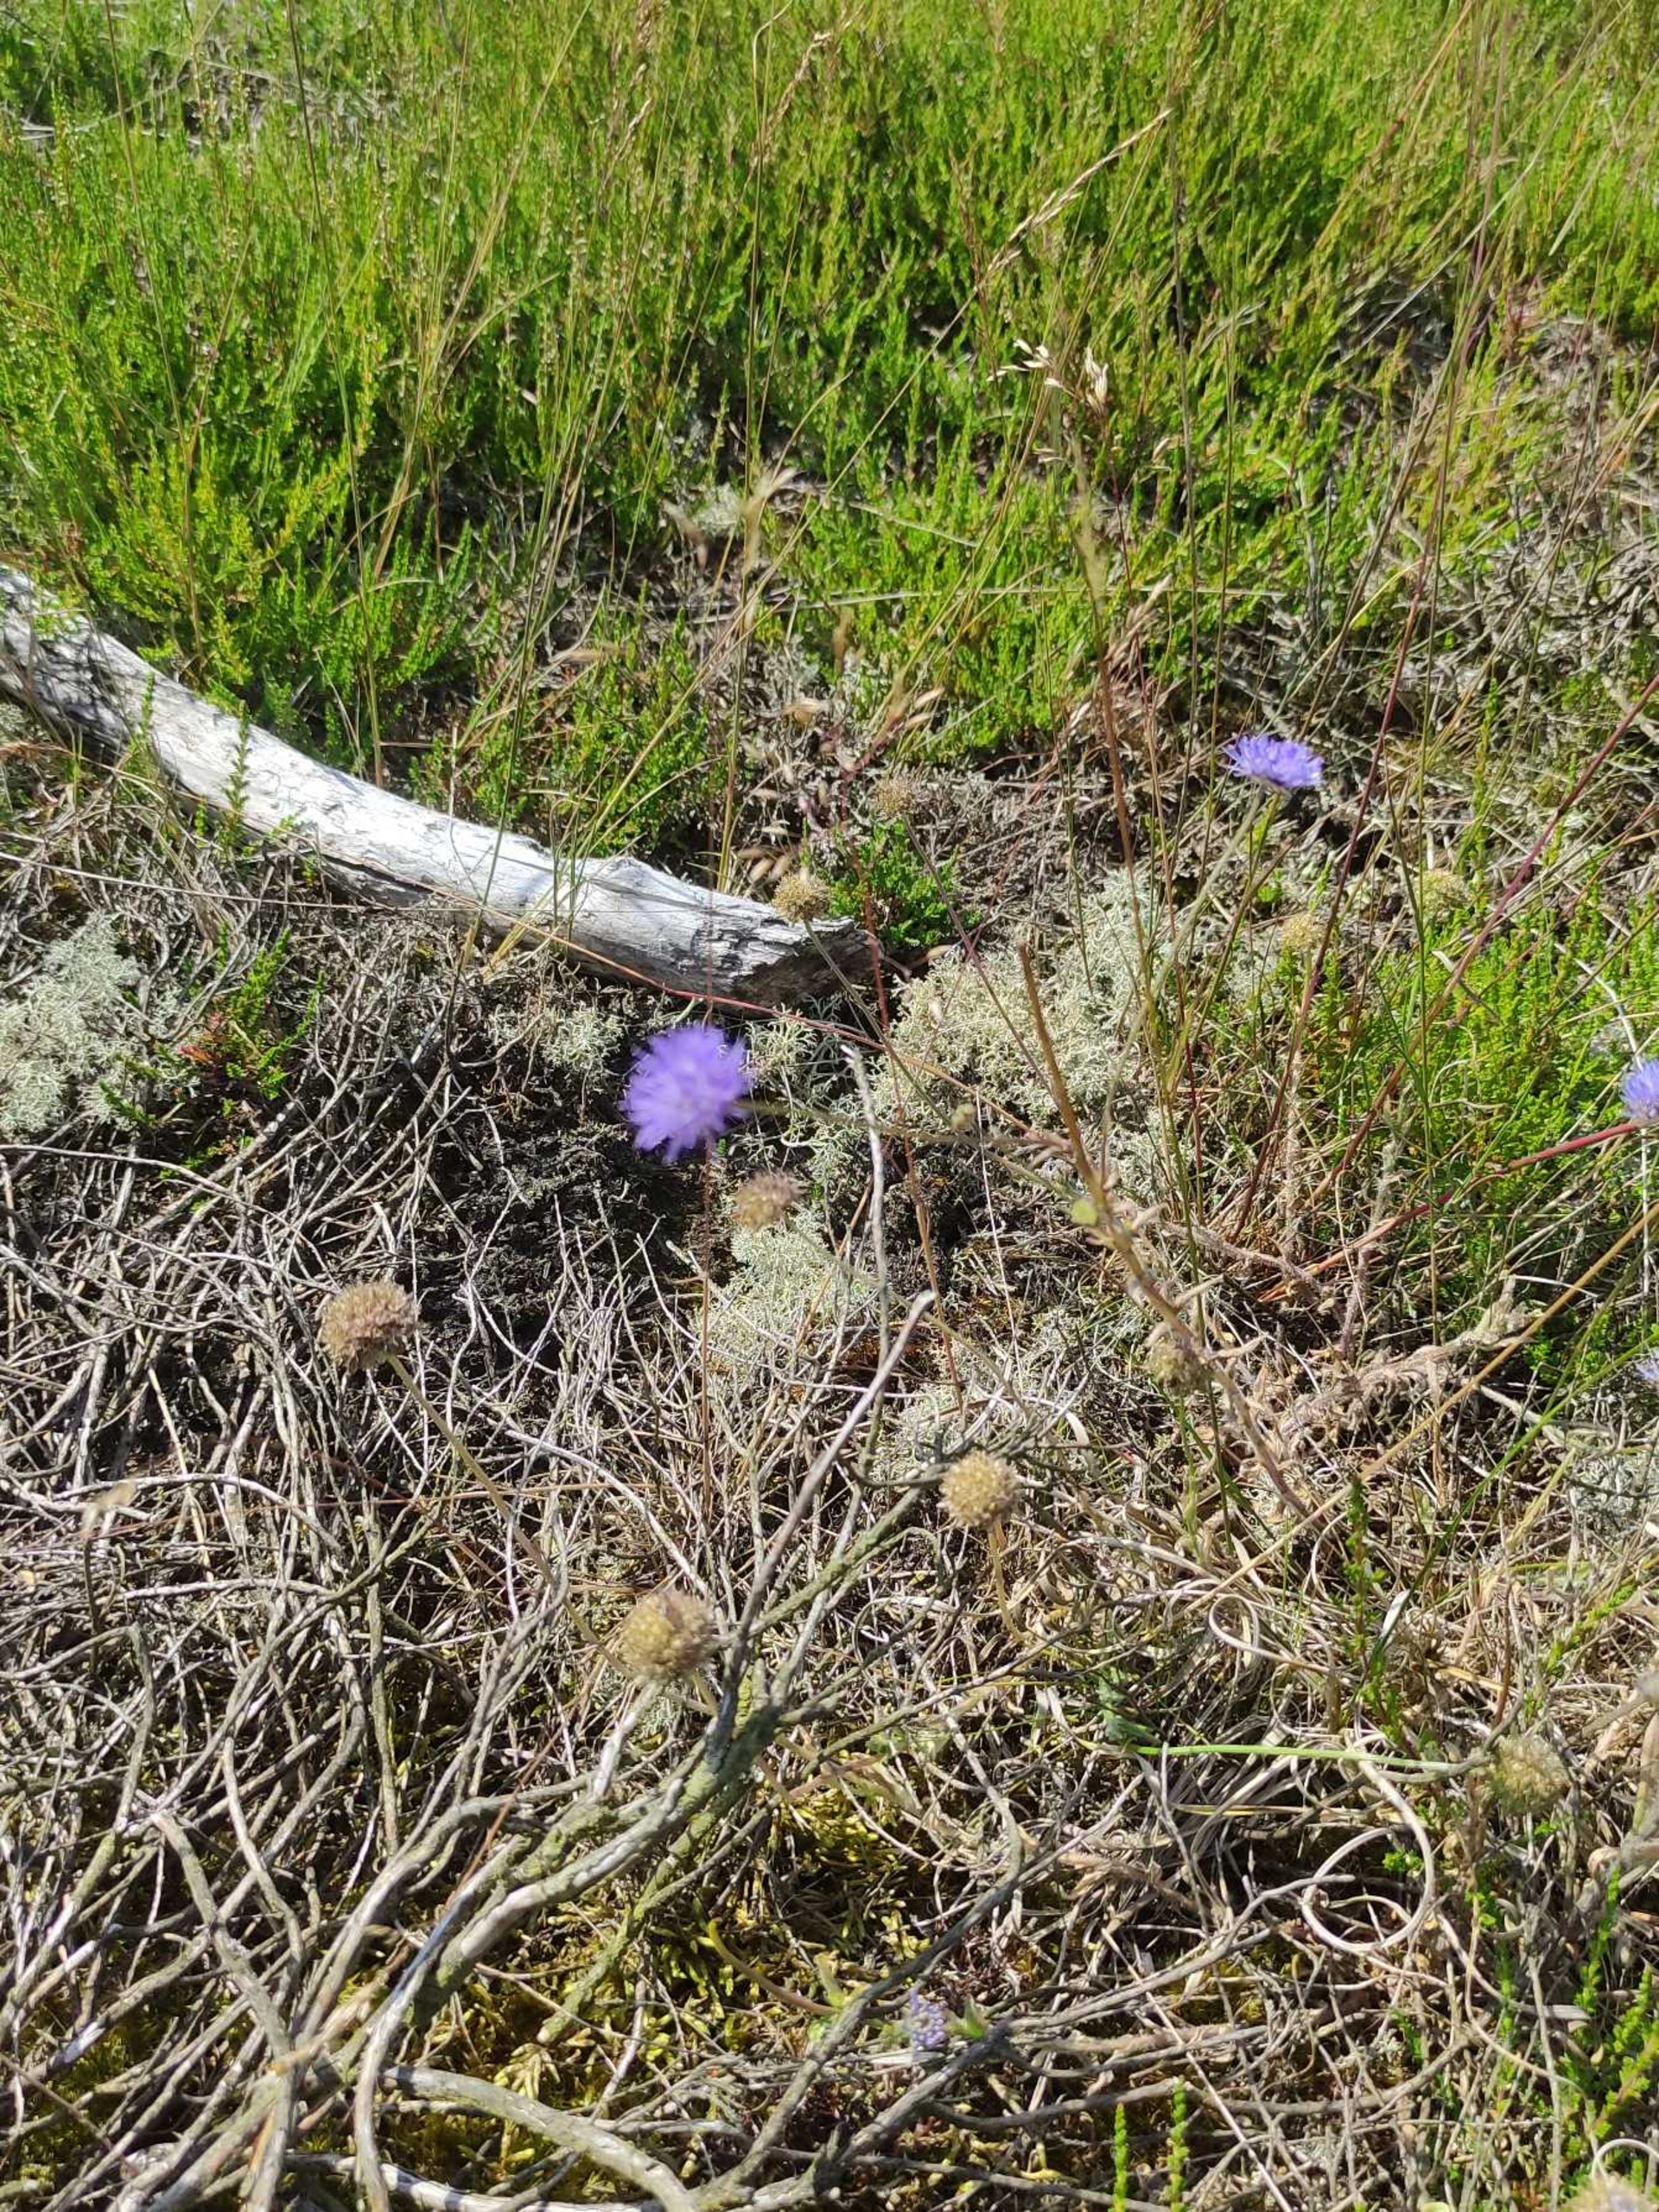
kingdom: Plantae
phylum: Tracheophyta
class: Magnoliopsida
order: Asterales
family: Campanulaceae
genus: Jasione
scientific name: Jasione montana
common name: Blåmunke
